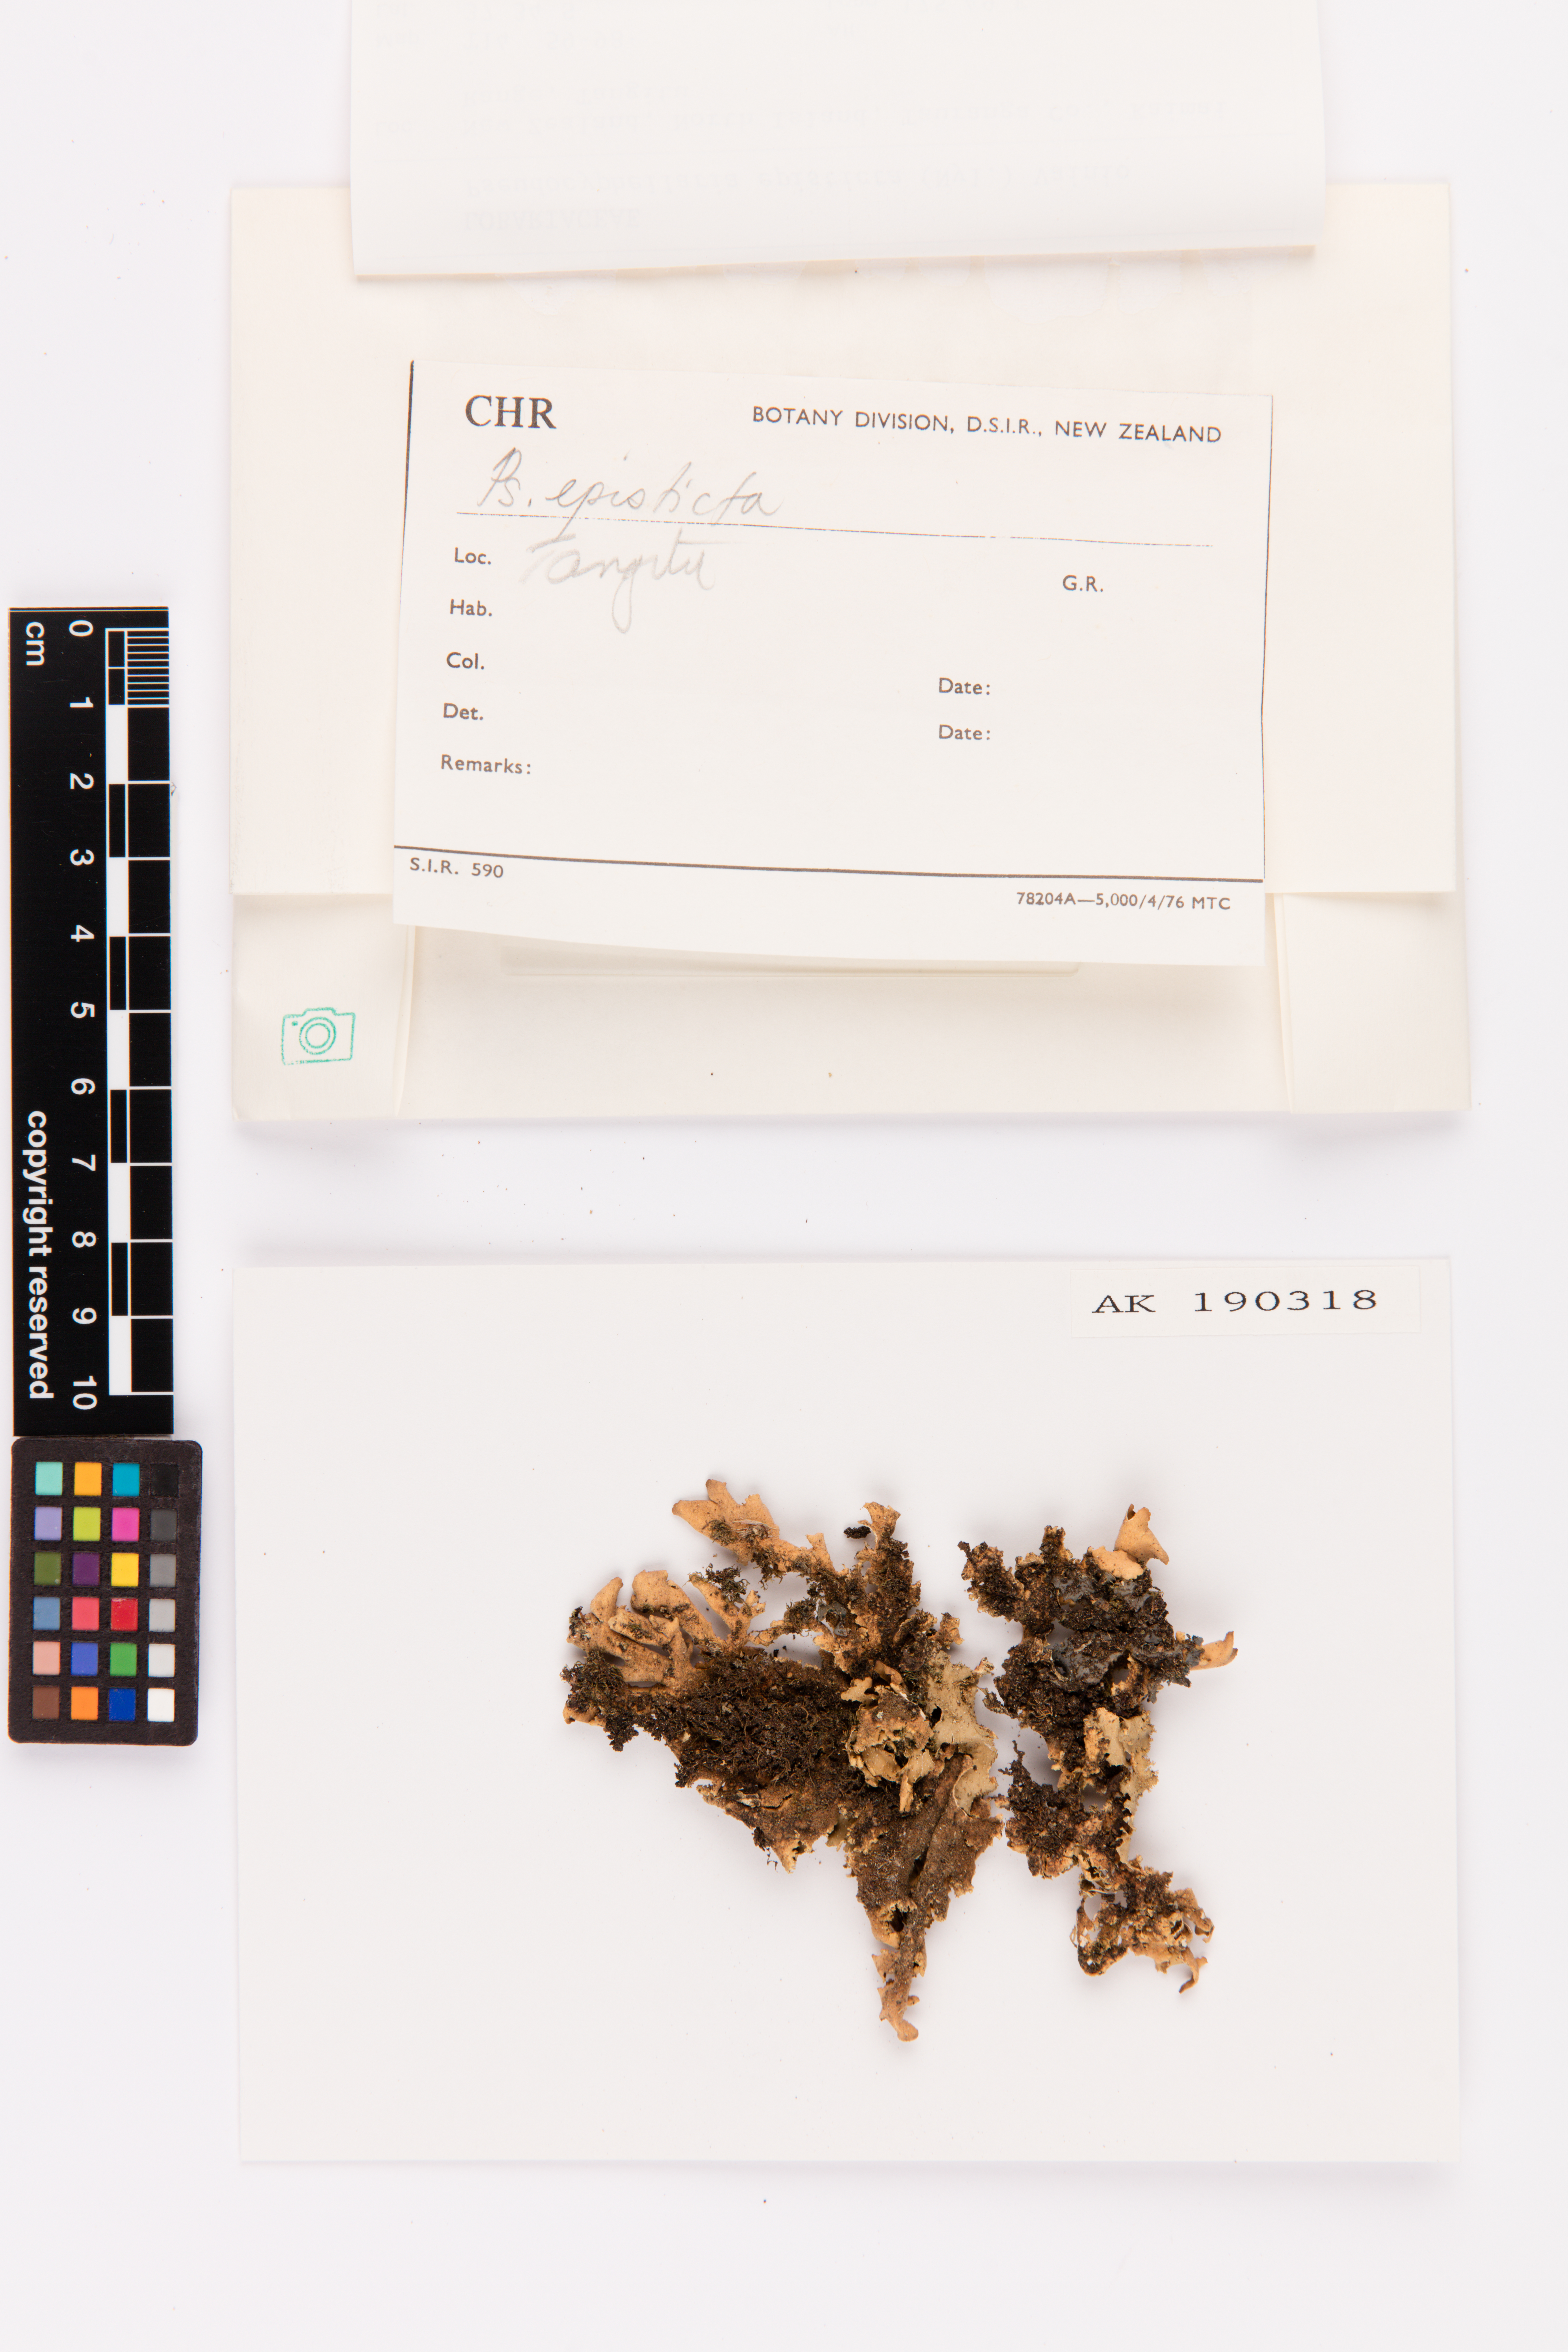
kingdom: Fungi
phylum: Ascomycota
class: Lecanoromycetes
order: Peltigerales
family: Lobariaceae
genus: Pseudocyphellaria
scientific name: Pseudocyphellaria episticta
